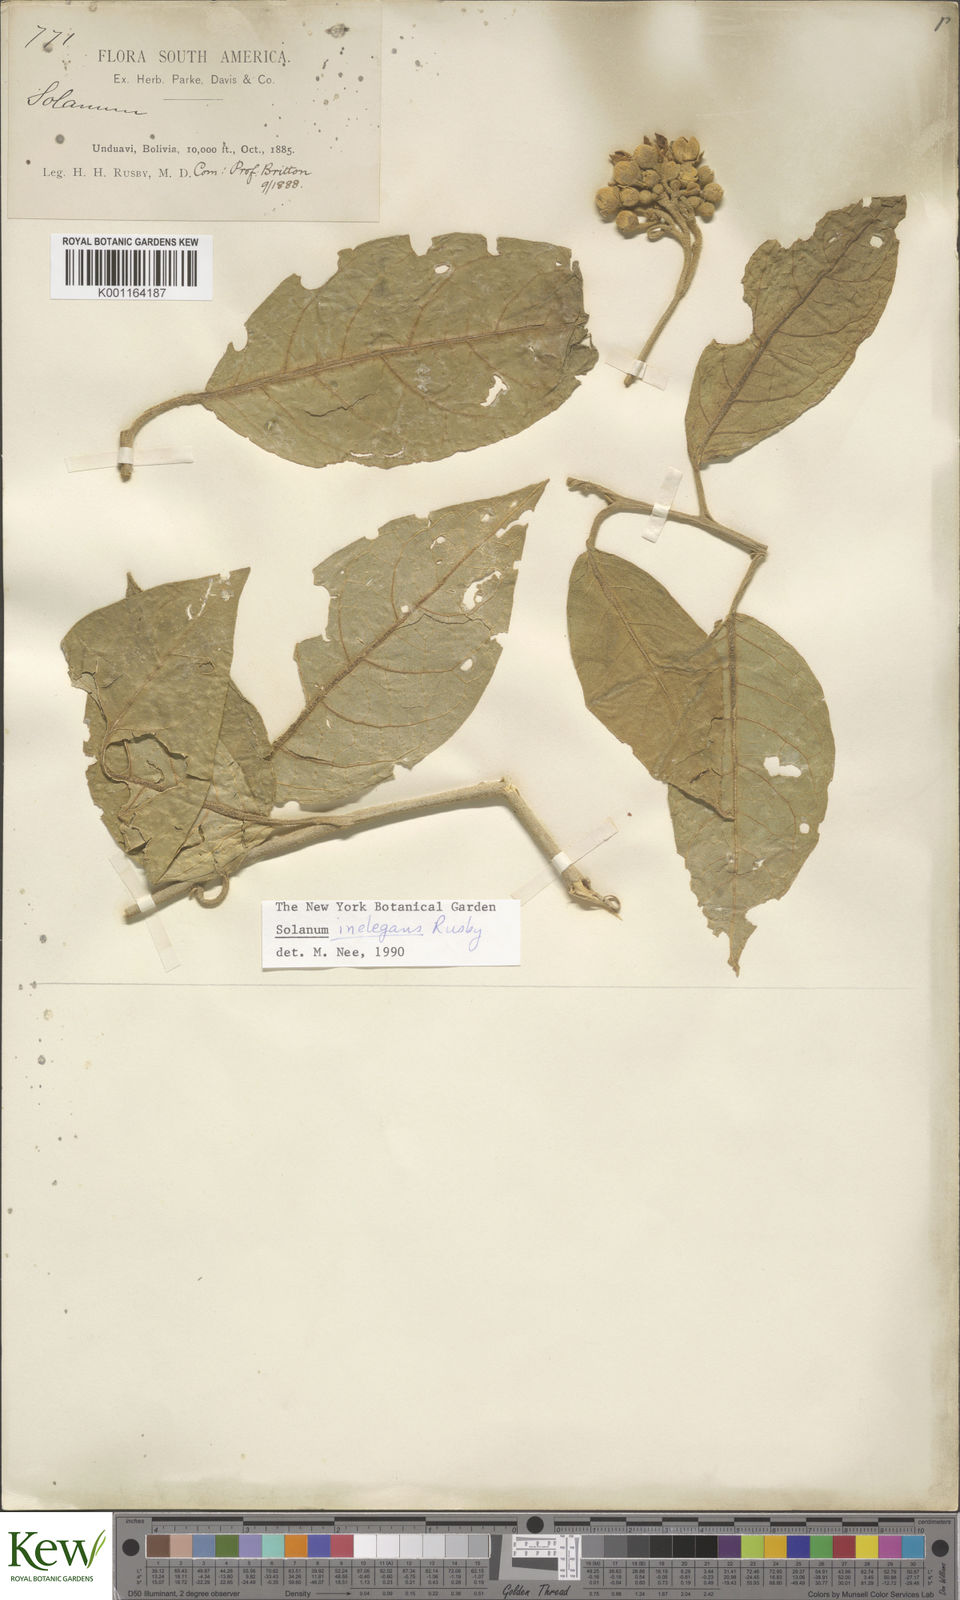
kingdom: Plantae
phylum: Tracheophyta
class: Magnoliopsida
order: Solanales
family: Solanaceae
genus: Solanum
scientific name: Solanum inelegans
